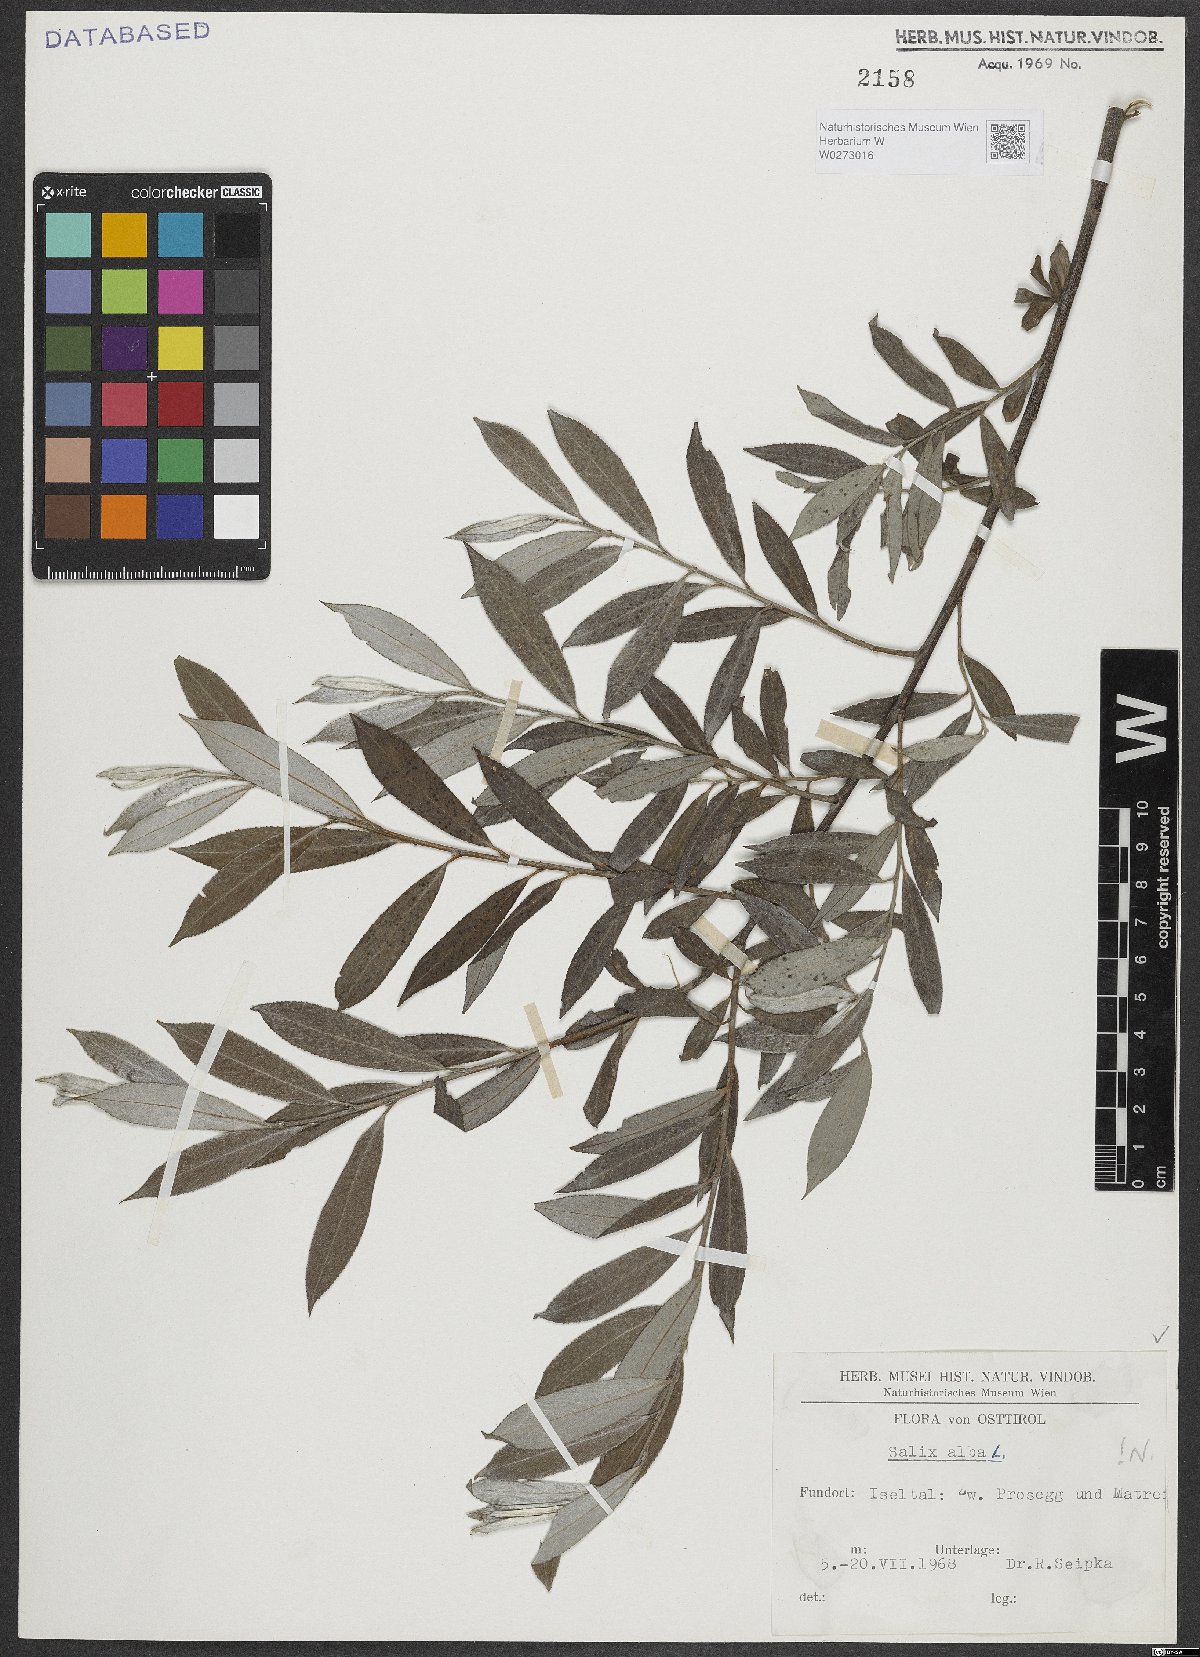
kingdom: Plantae
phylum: Tracheophyta
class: Magnoliopsida
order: Malpighiales
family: Salicaceae
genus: Salix
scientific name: Salix alba
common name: White willow
